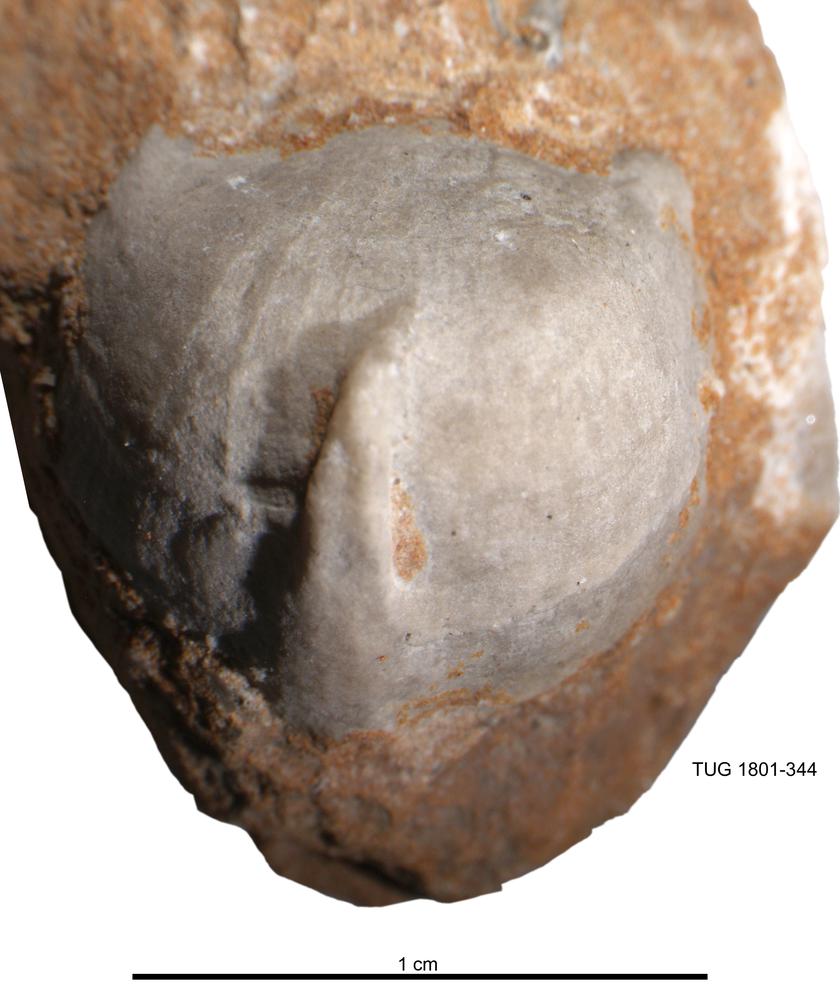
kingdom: Animalia
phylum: Brachiopoda
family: Strophomenidae
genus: Bekkerina
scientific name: Bekkerina
